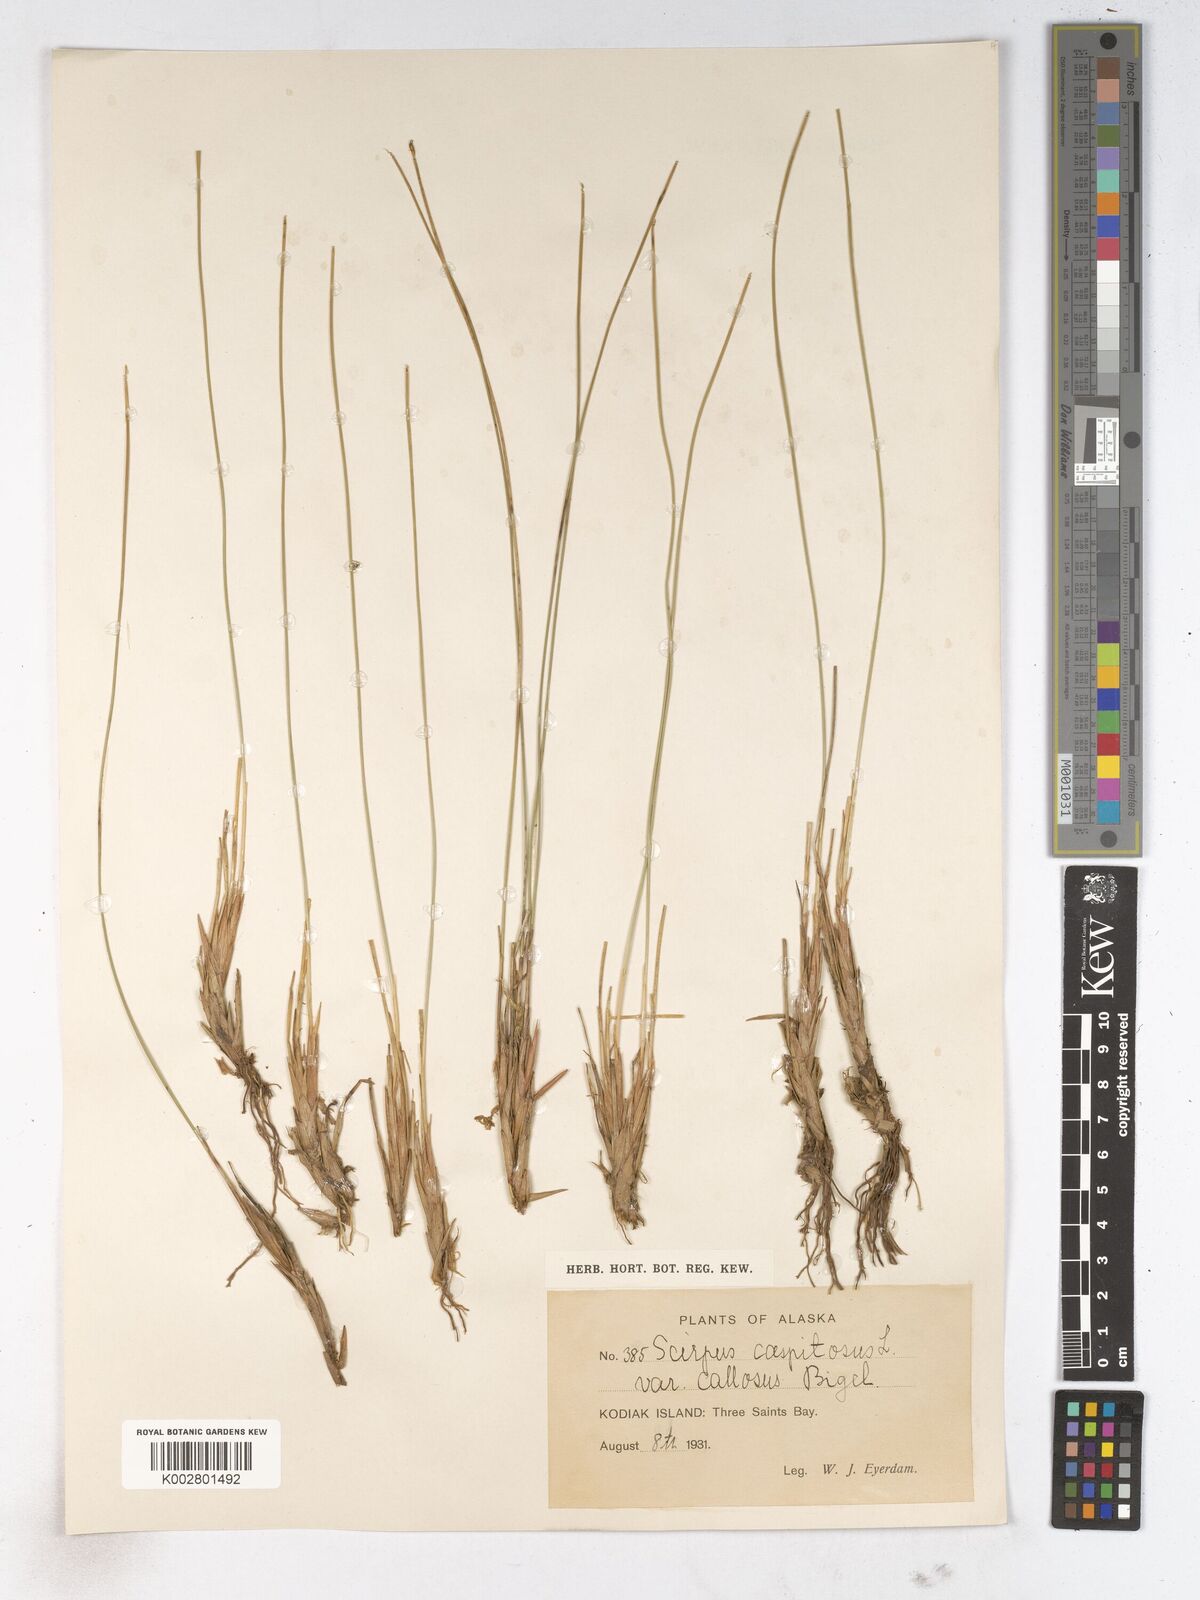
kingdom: Plantae
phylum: Tracheophyta
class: Liliopsida
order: Poales
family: Cyperaceae
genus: Trichophorum
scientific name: Trichophorum cespitosum
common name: Cespitose bulrush
